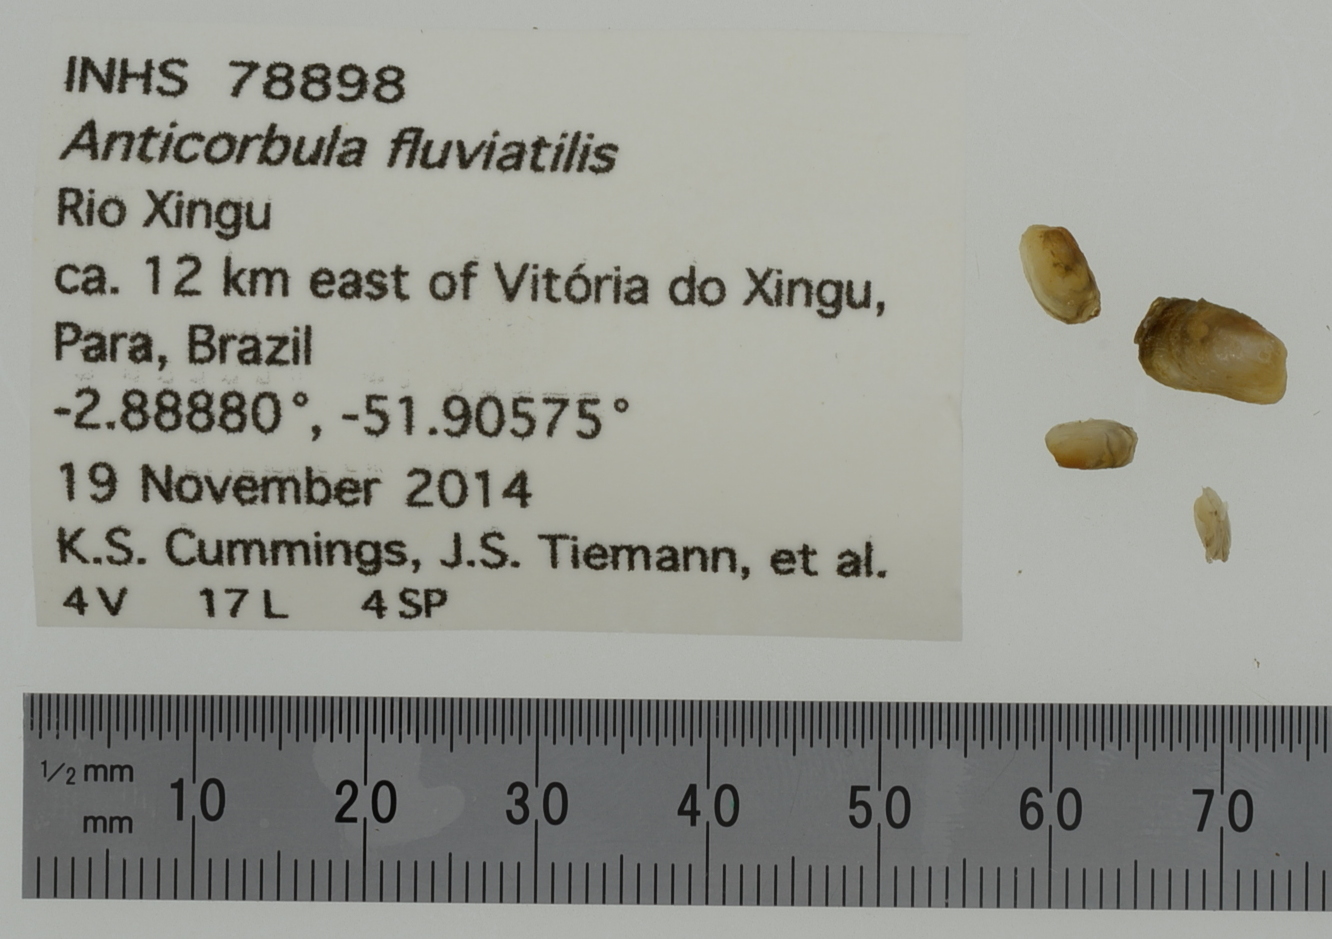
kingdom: Animalia
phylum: Mollusca
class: Bivalvia
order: Myida
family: Corbulidae
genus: Anticorbula
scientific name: Anticorbula fluviatilis
